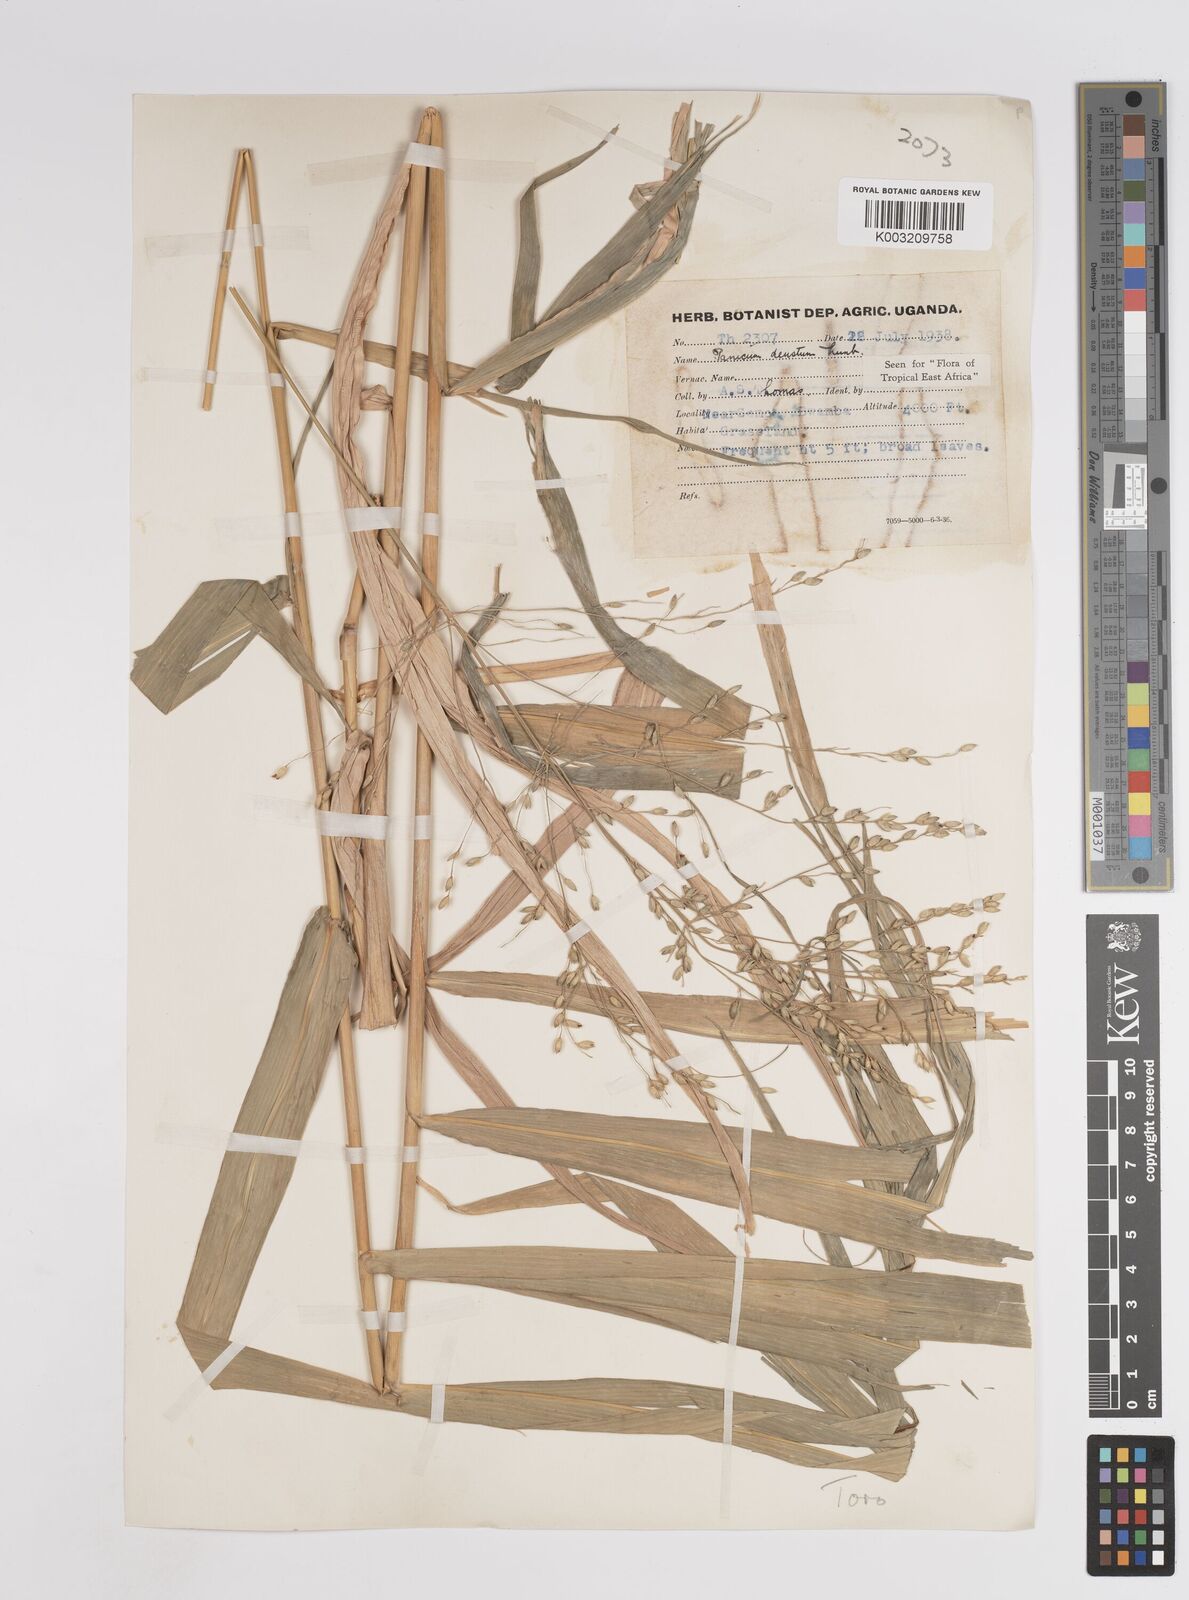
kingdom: Plantae
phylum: Tracheophyta
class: Liliopsida
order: Poales
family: Poaceae
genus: Panicum
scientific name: Panicum deustum
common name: Reed panicum
